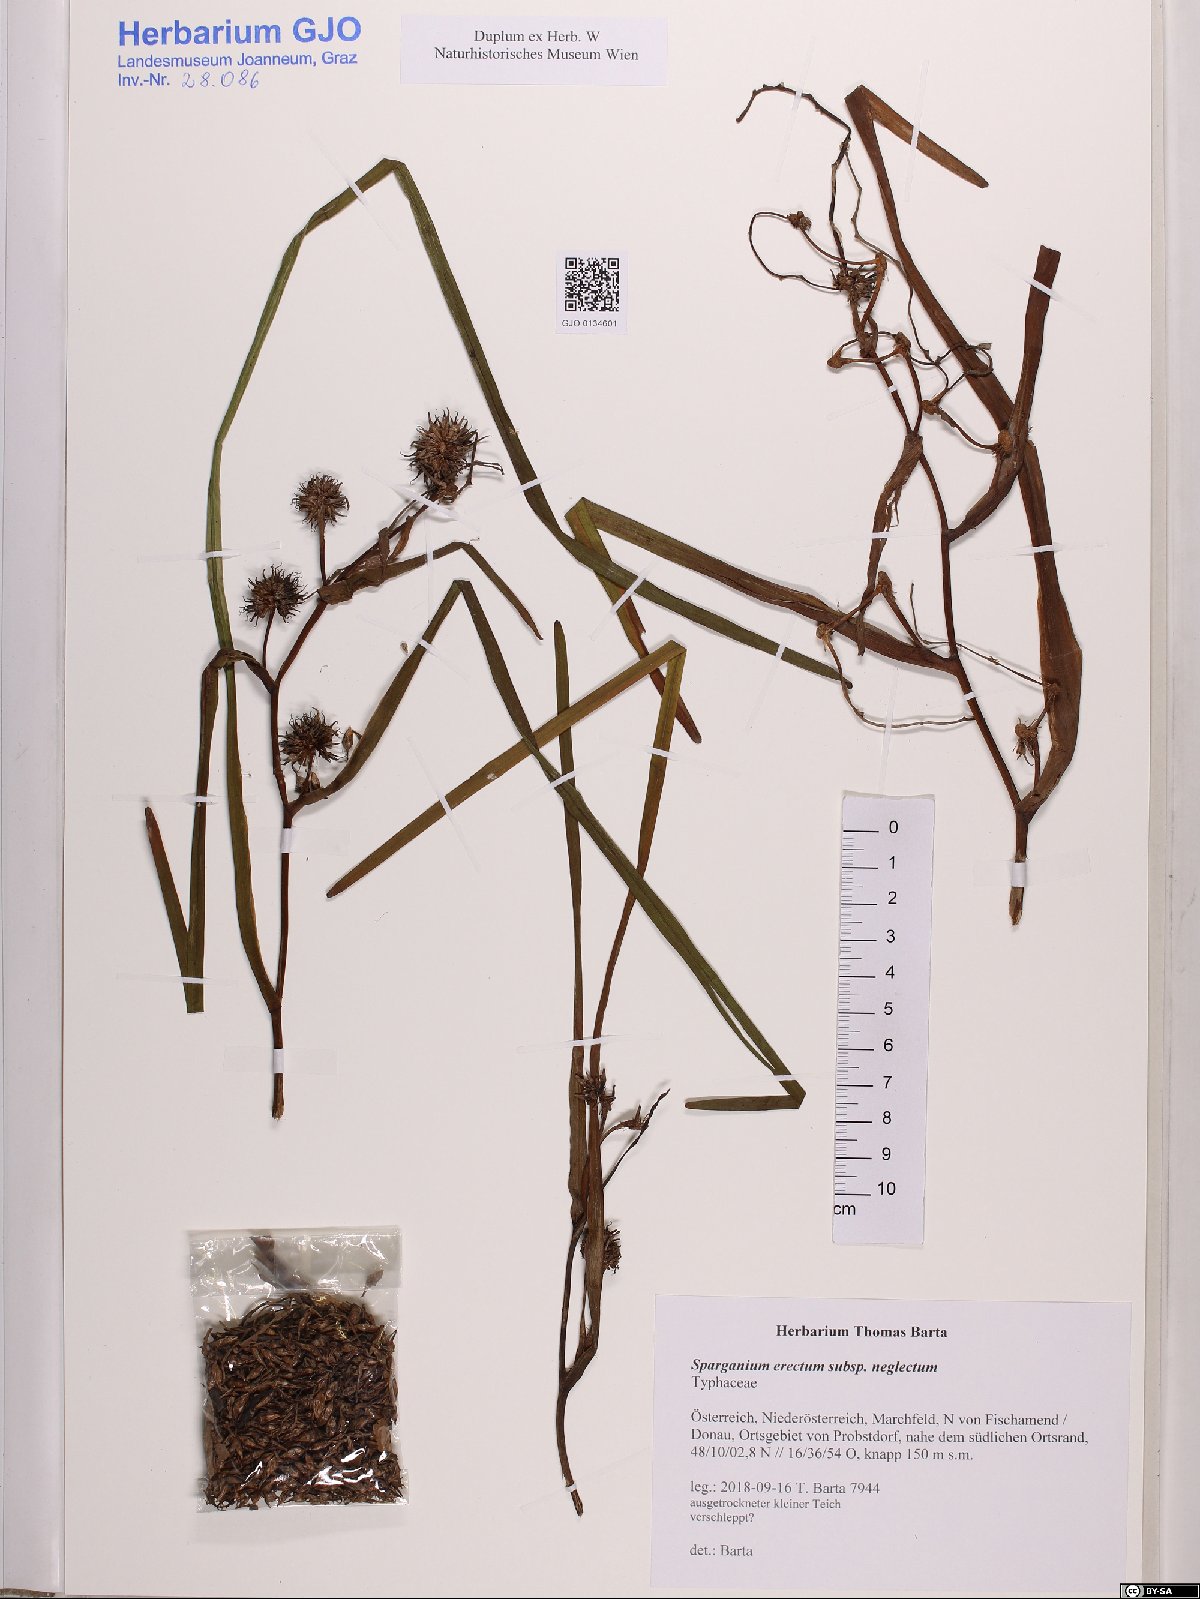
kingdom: Plantae
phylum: Tracheophyta
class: Liliopsida
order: Poales
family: Typhaceae
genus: Sparganium
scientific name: Sparganium erectum
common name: Branched bur-reed
